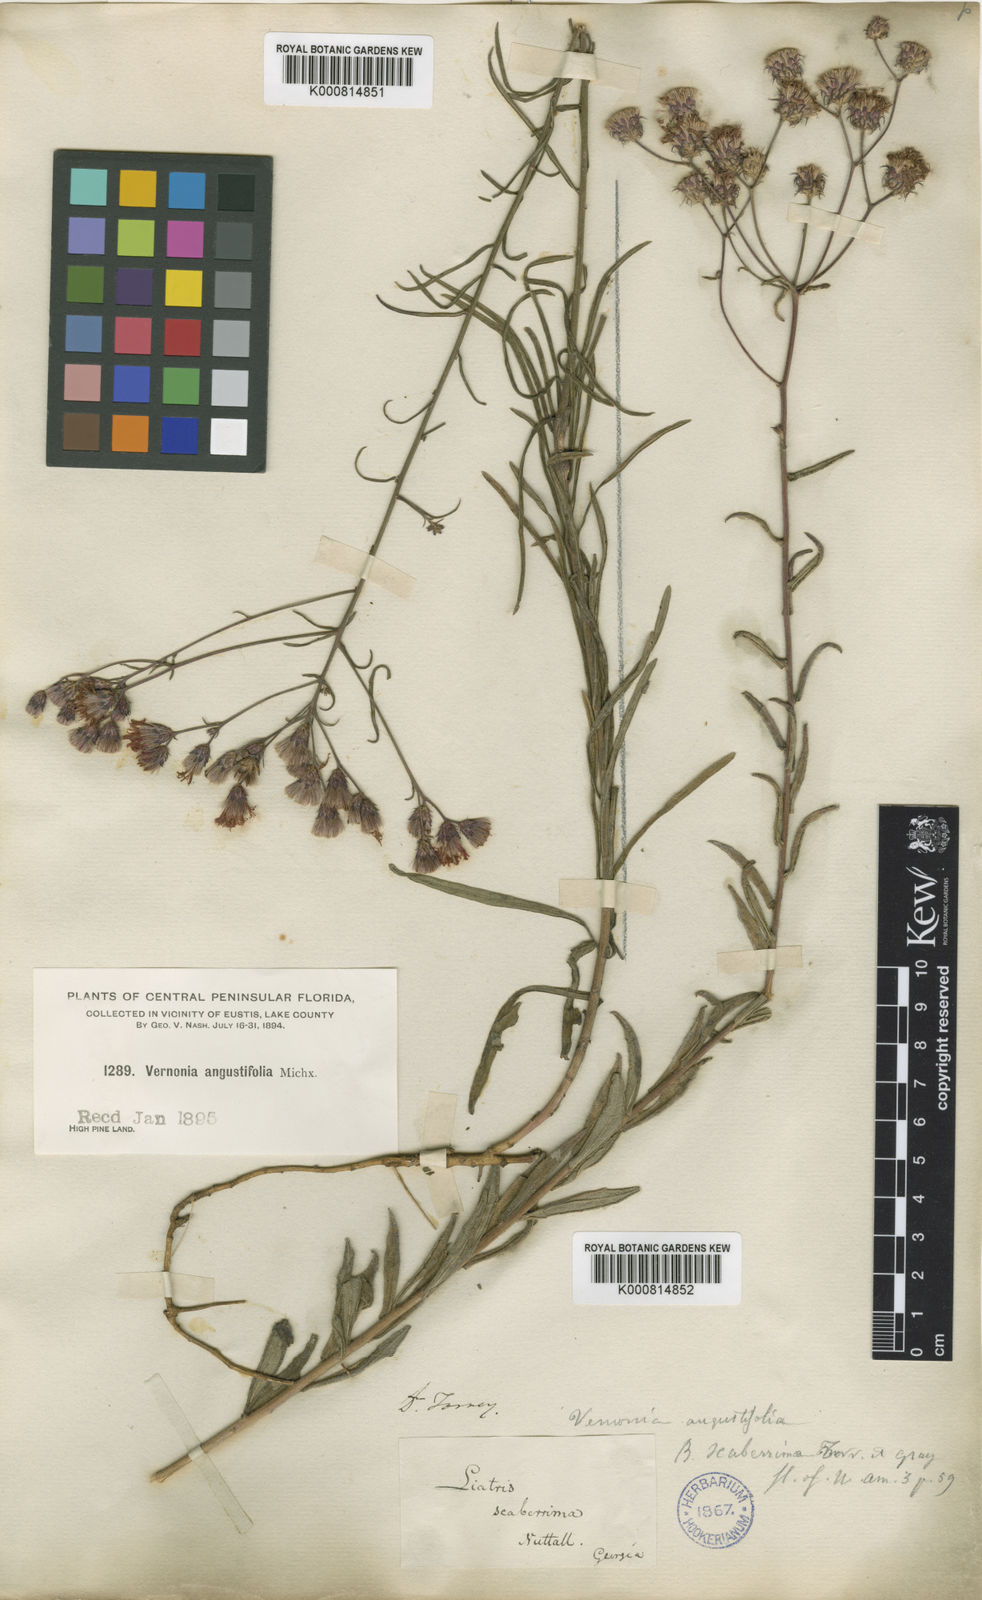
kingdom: Plantae
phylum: Tracheophyta
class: Magnoliopsida
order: Asterales
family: Asteraceae
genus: Vernonia
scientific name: Vernonia angustifolia
